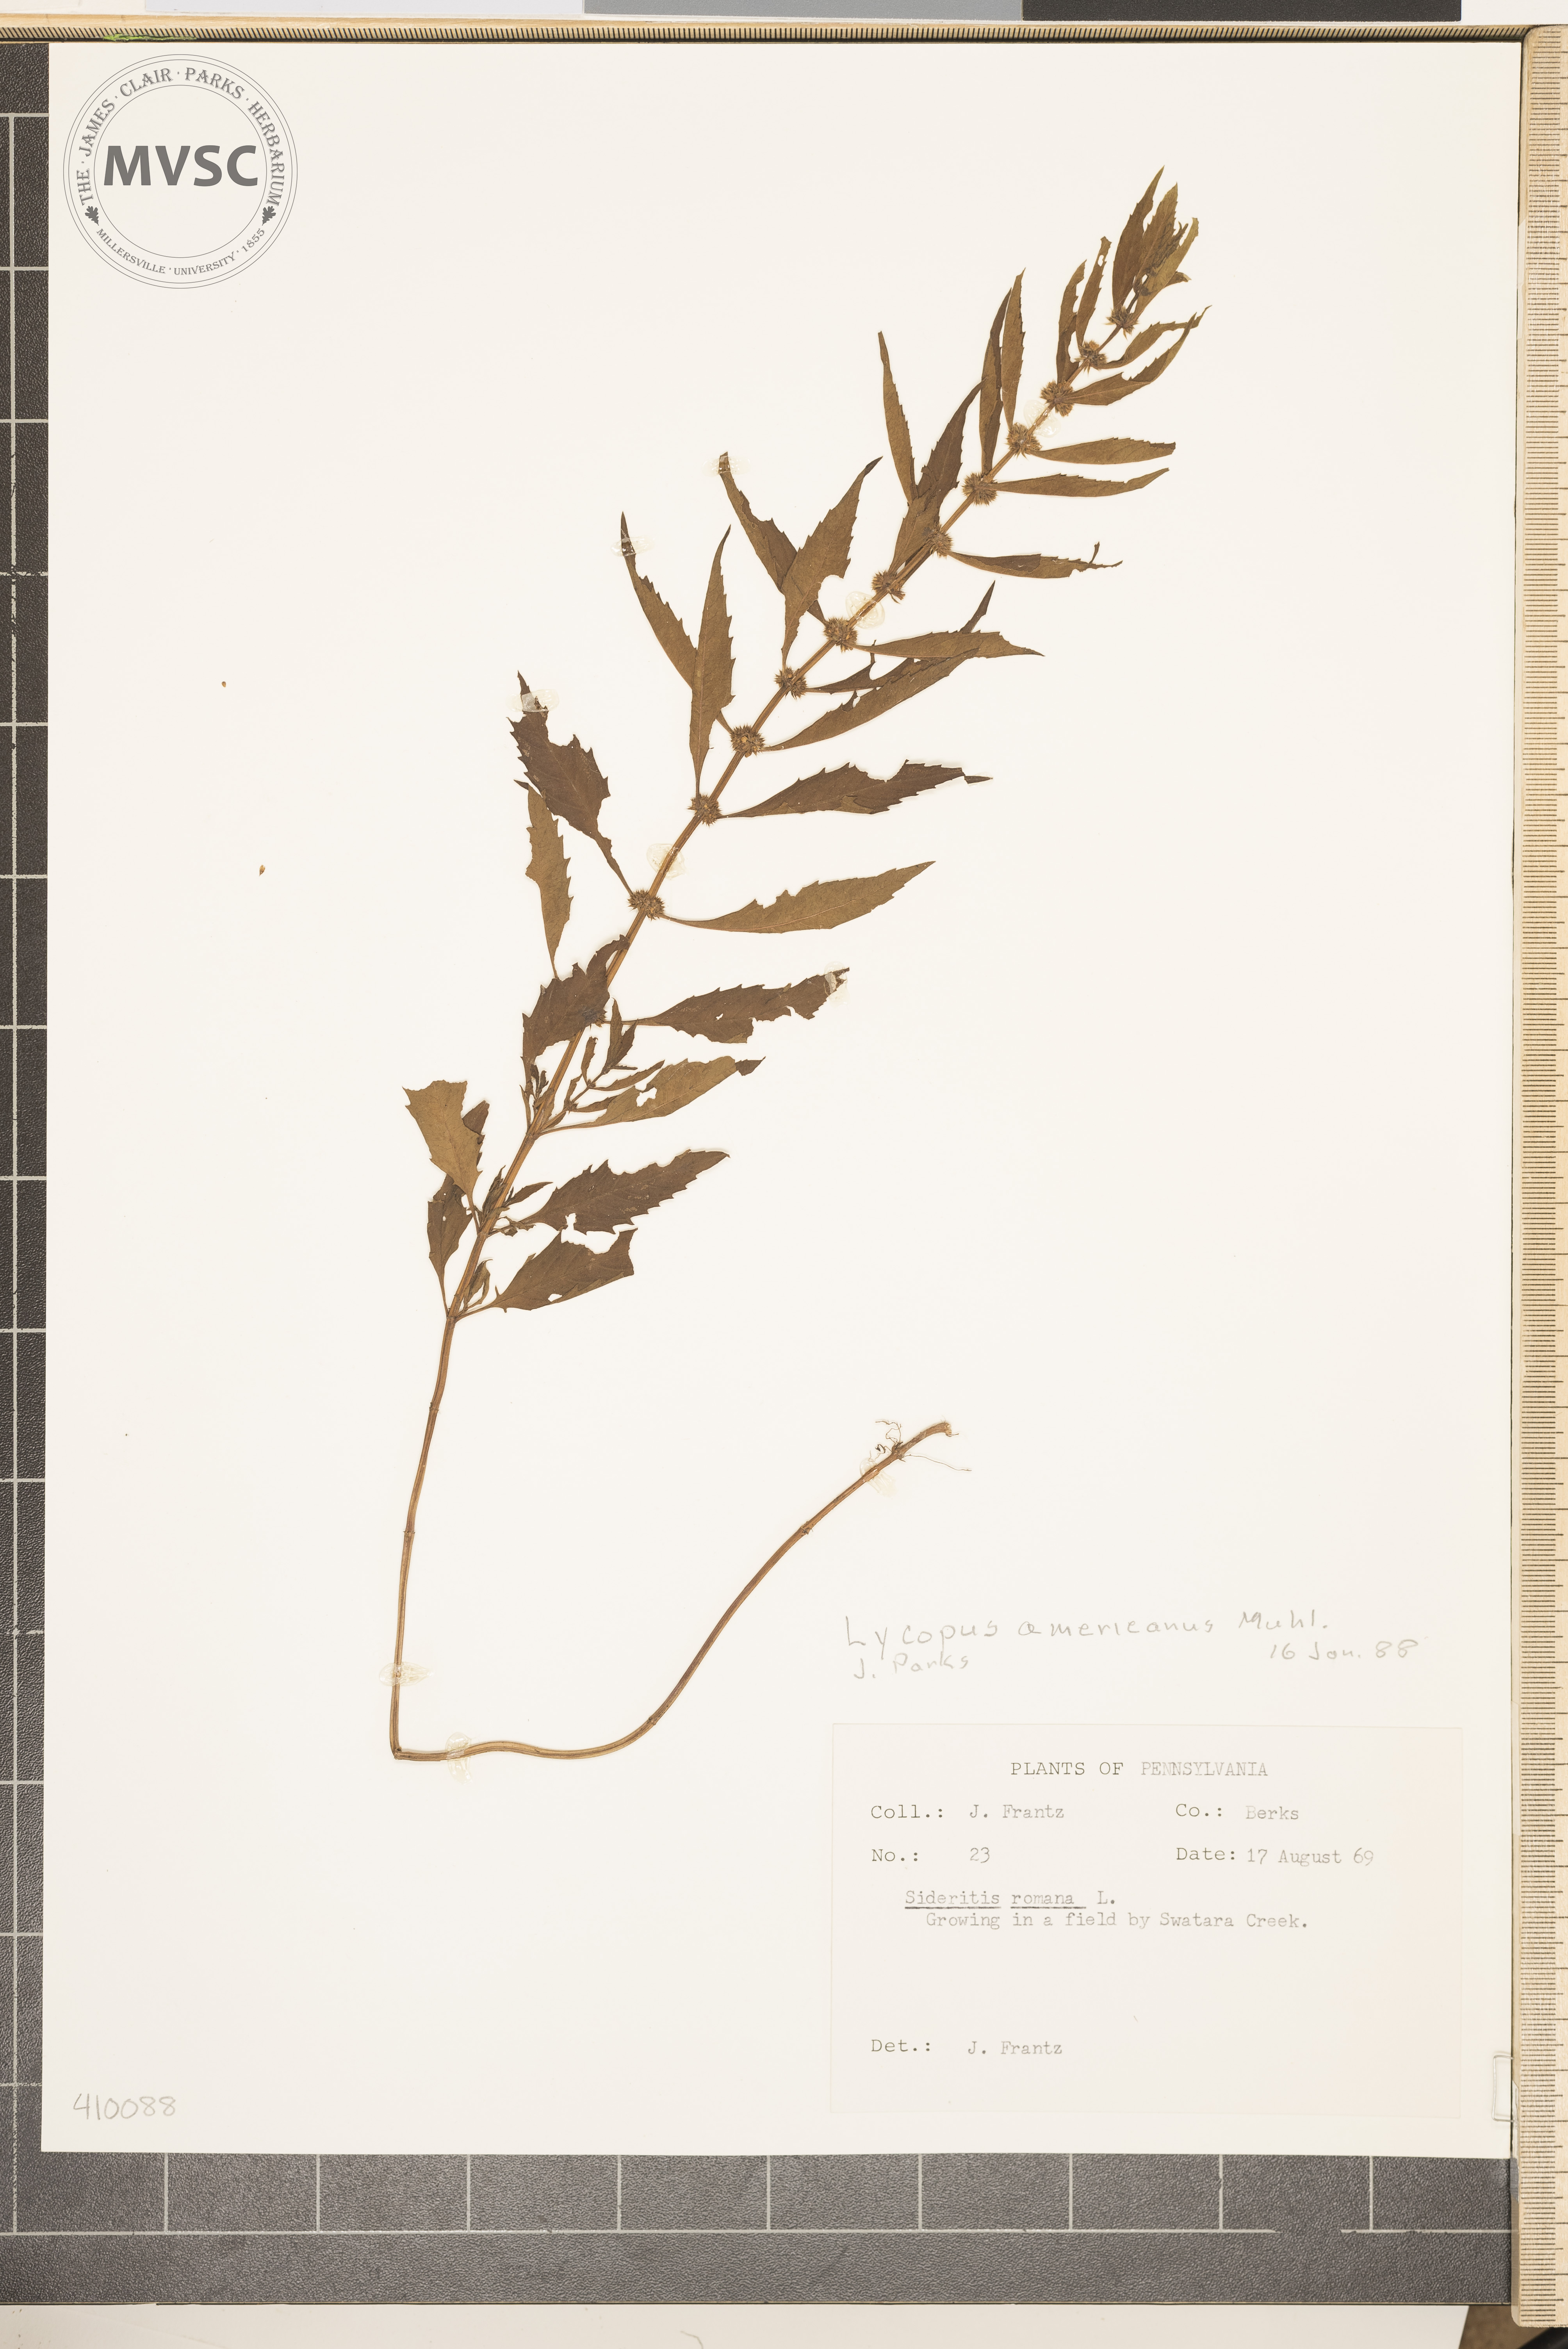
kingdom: Plantae
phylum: Tracheophyta
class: Magnoliopsida
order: Lamiales
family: Lamiaceae
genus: Lycopus
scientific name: Lycopus americanus
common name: American bugleweed
